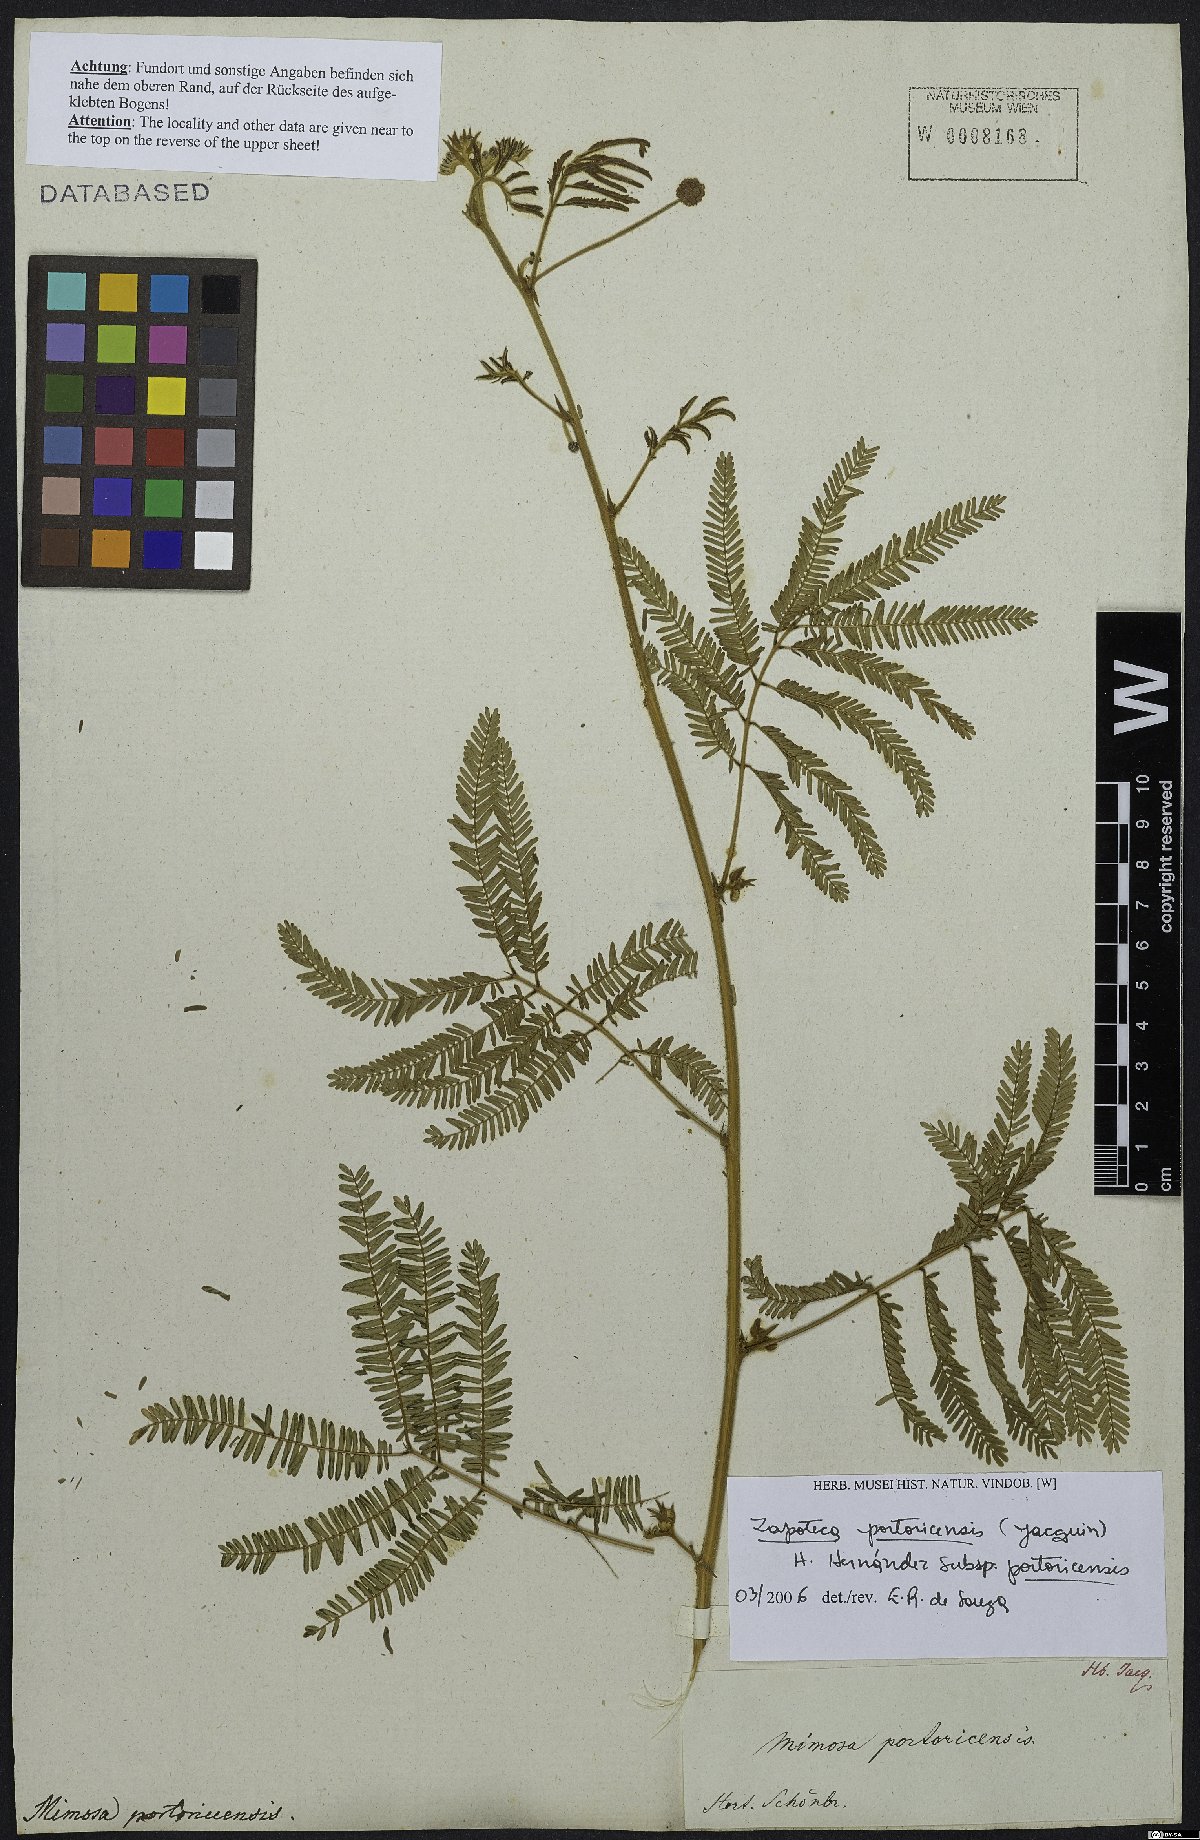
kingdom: Plantae
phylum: Tracheophyta
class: Magnoliopsida
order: Fabales
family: Fabaceae
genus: Zapoteca
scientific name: Zapoteca portoricensis
